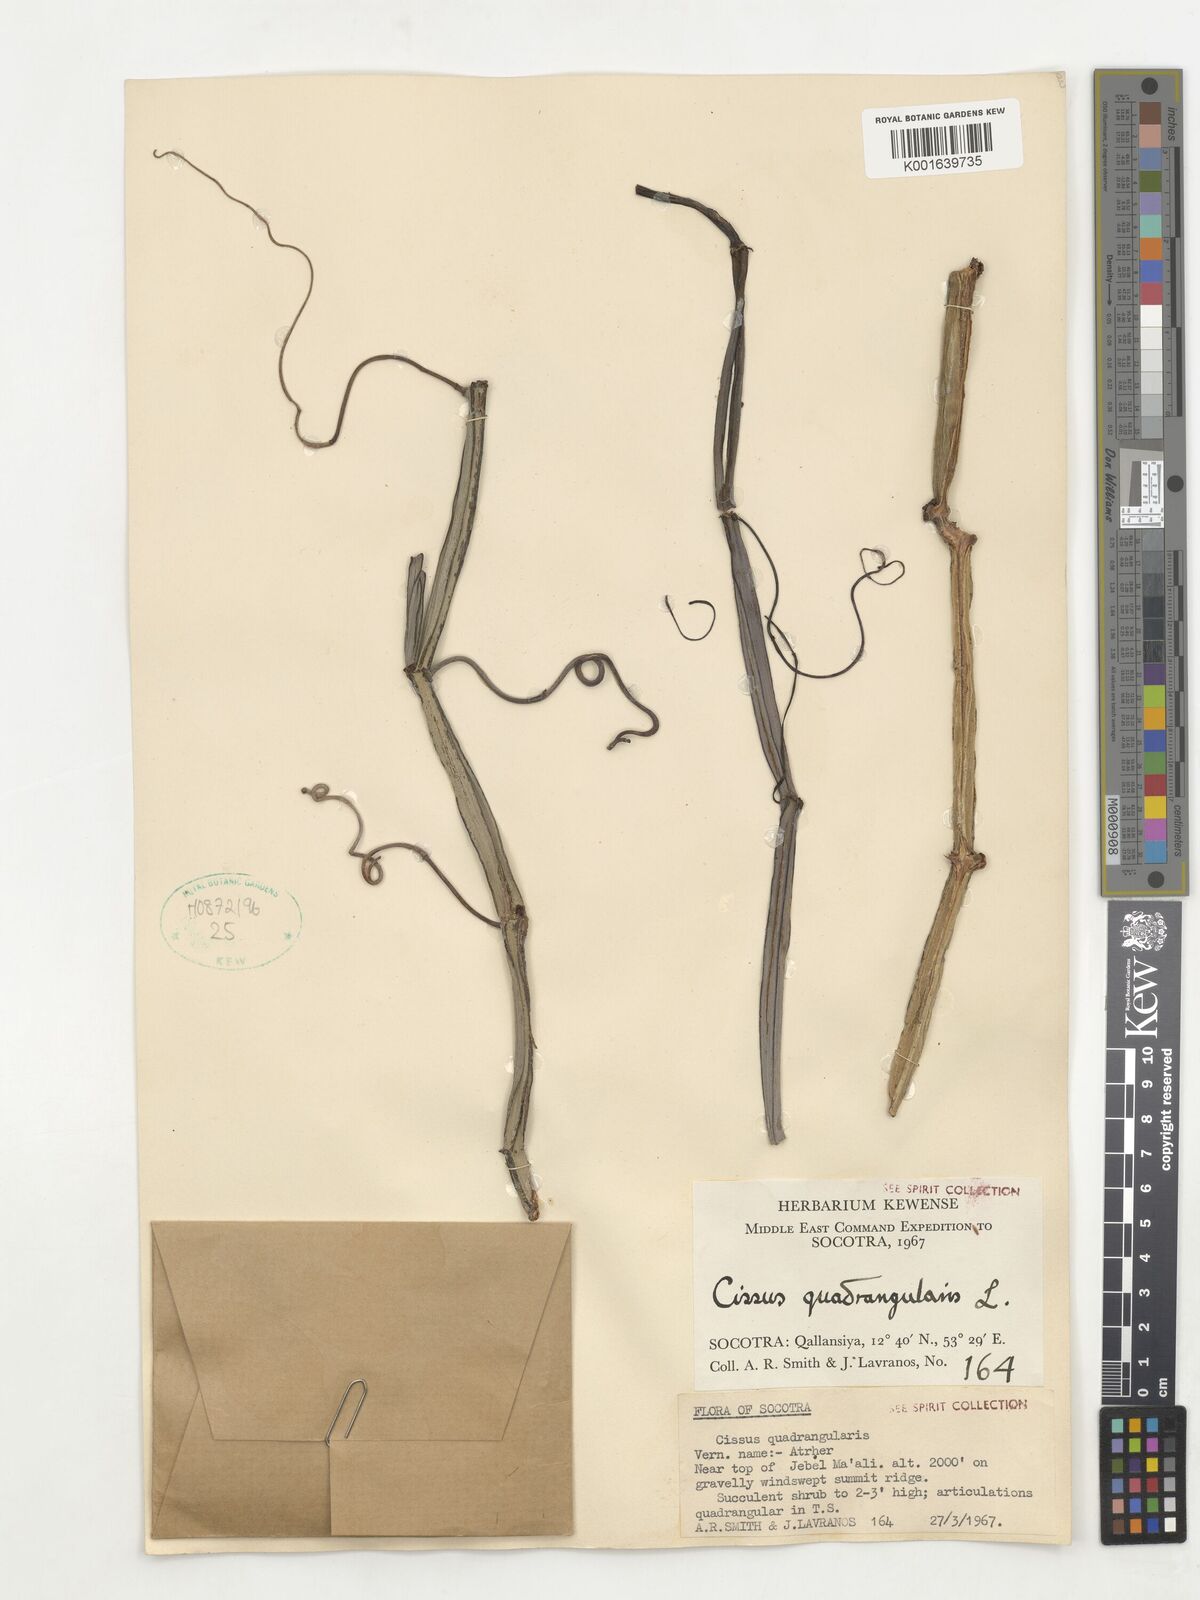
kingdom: Plantae
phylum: Tracheophyta
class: Magnoliopsida
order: Vitales
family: Vitaceae
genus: Cissus
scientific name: Cissus quadrangularis
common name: Veldt-grape
